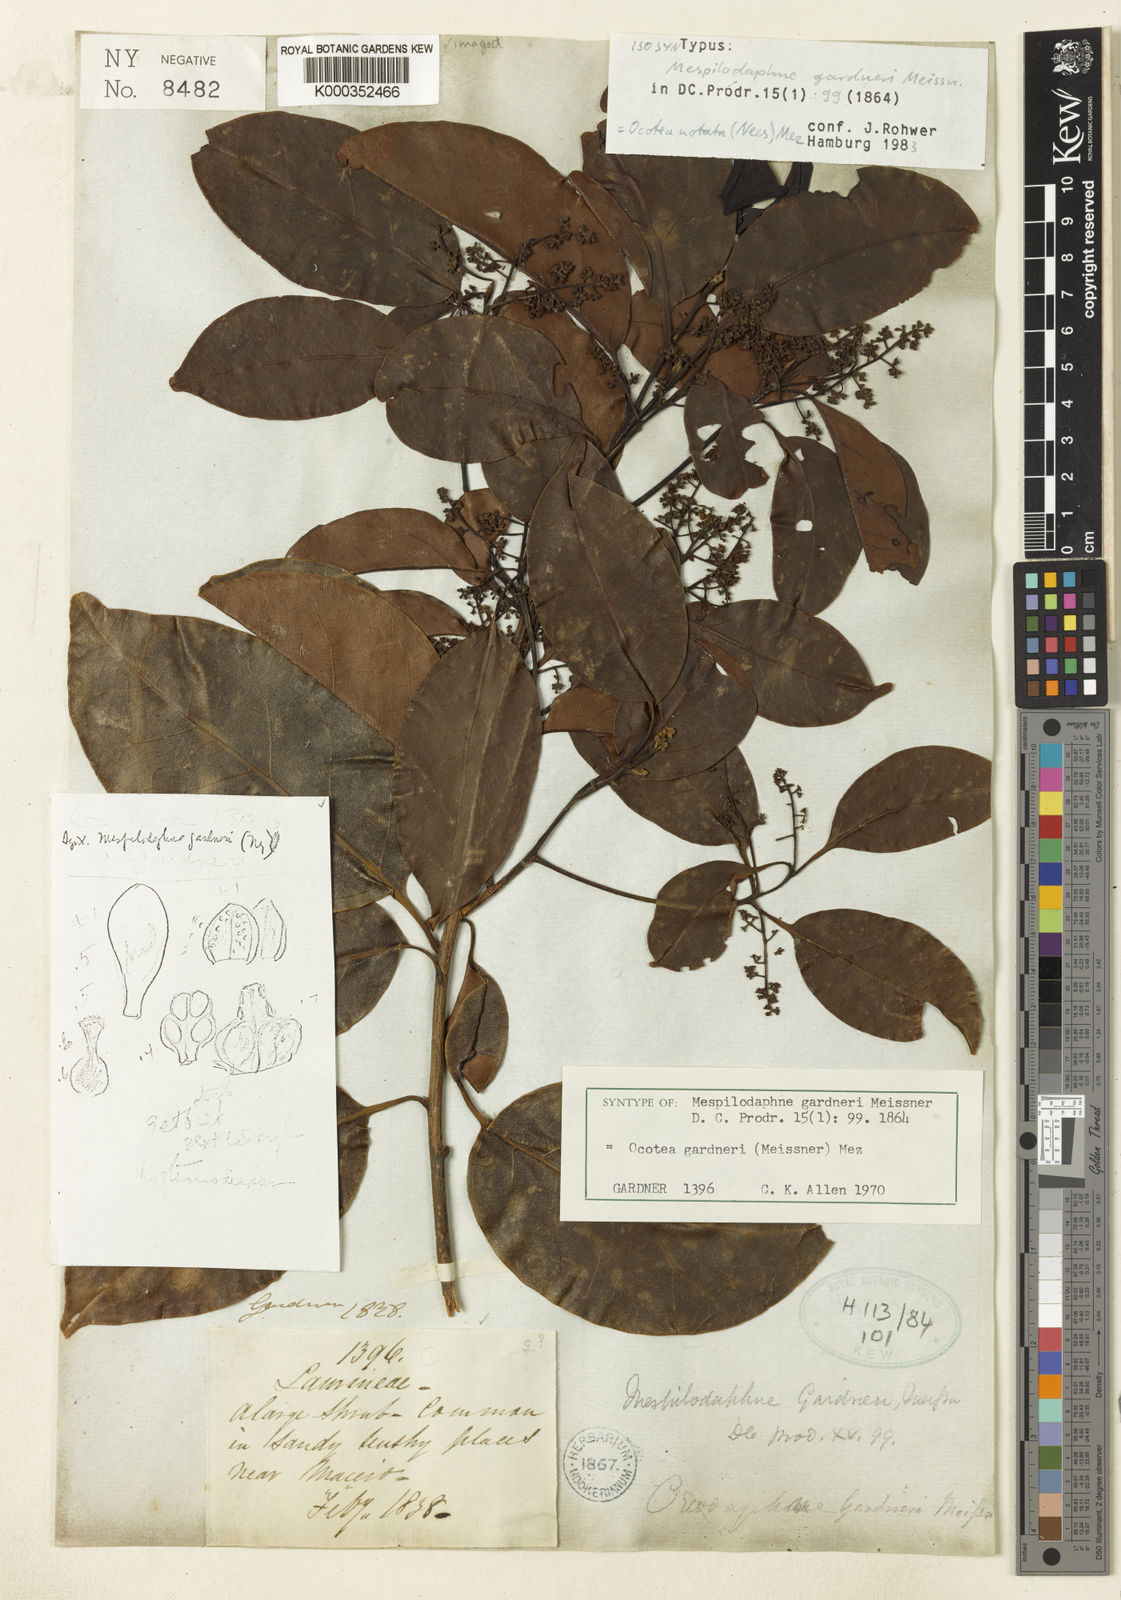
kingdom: Plantae
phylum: Tracheophyta
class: Magnoliopsida
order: Laurales
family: Lauraceae
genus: Mespilodaphne
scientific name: Mespilodaphne gardneri
